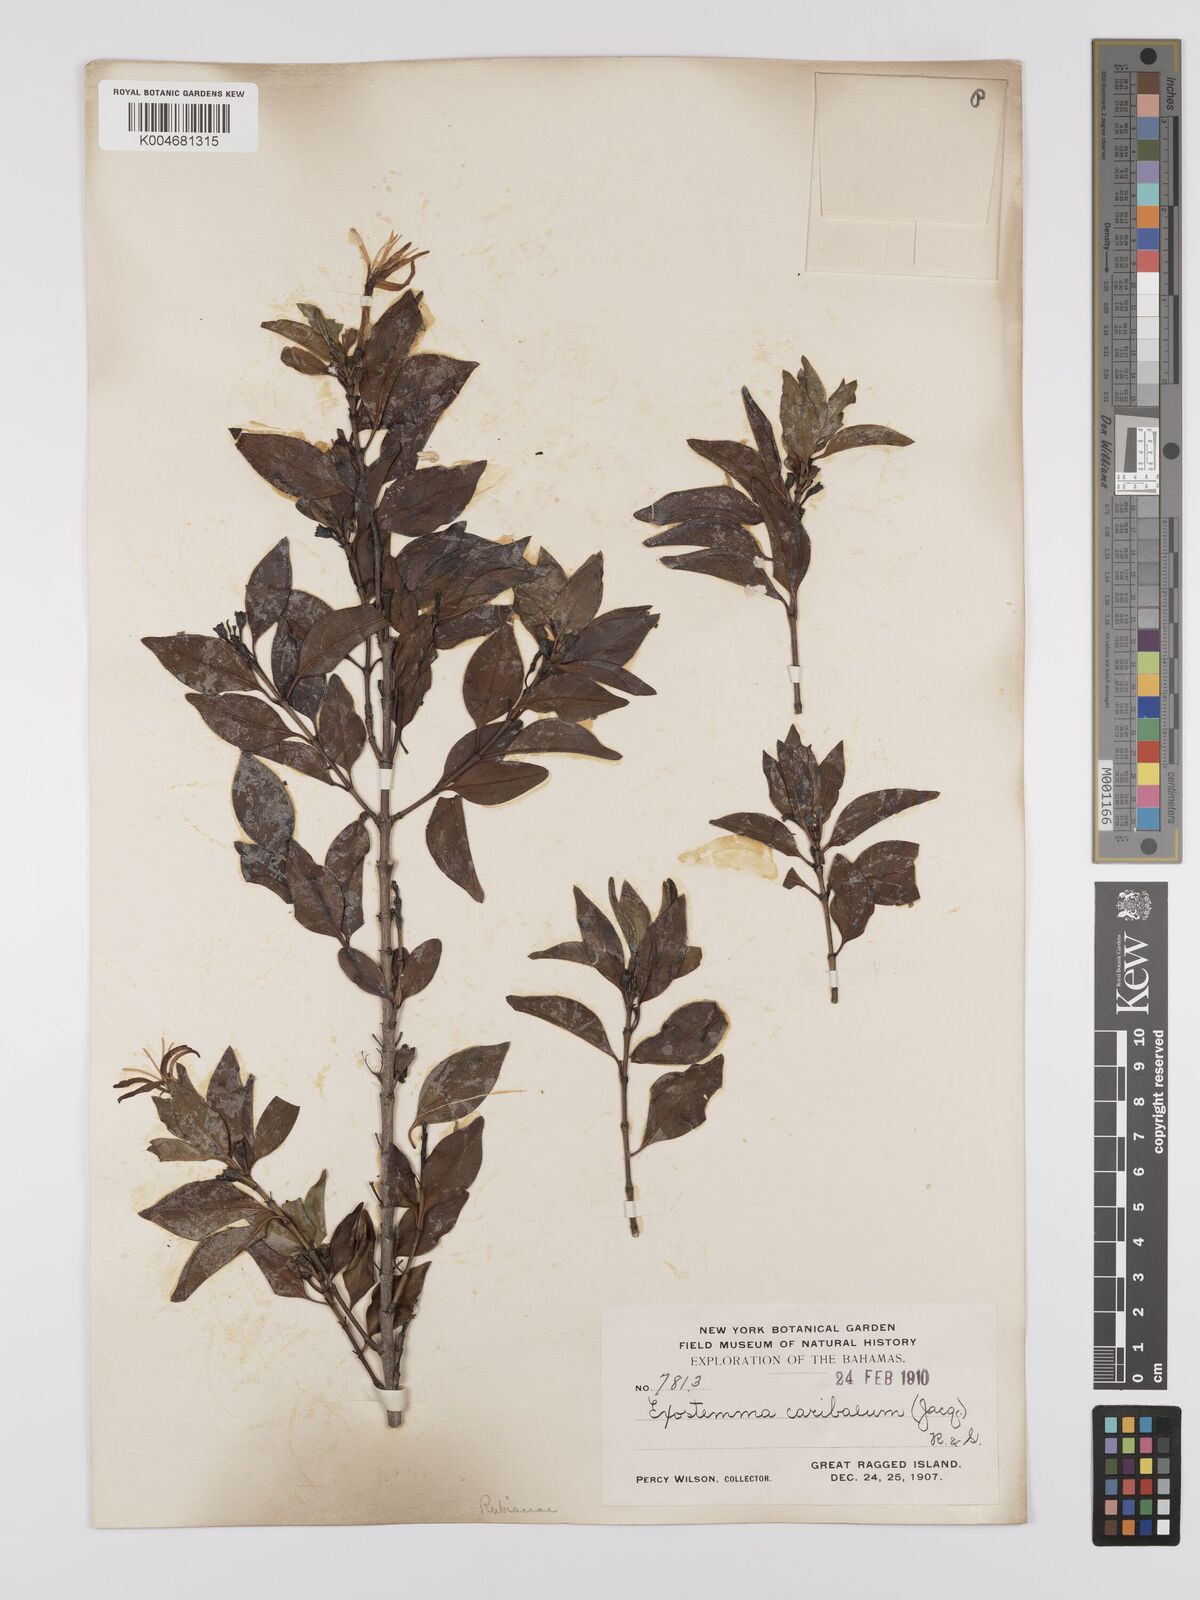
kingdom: Plantae
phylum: Tracheophyta
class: Magnoliopsida
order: Gentianales
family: Rubiaceae
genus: Exostema
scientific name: Exostema caribaeum
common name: Princewood
